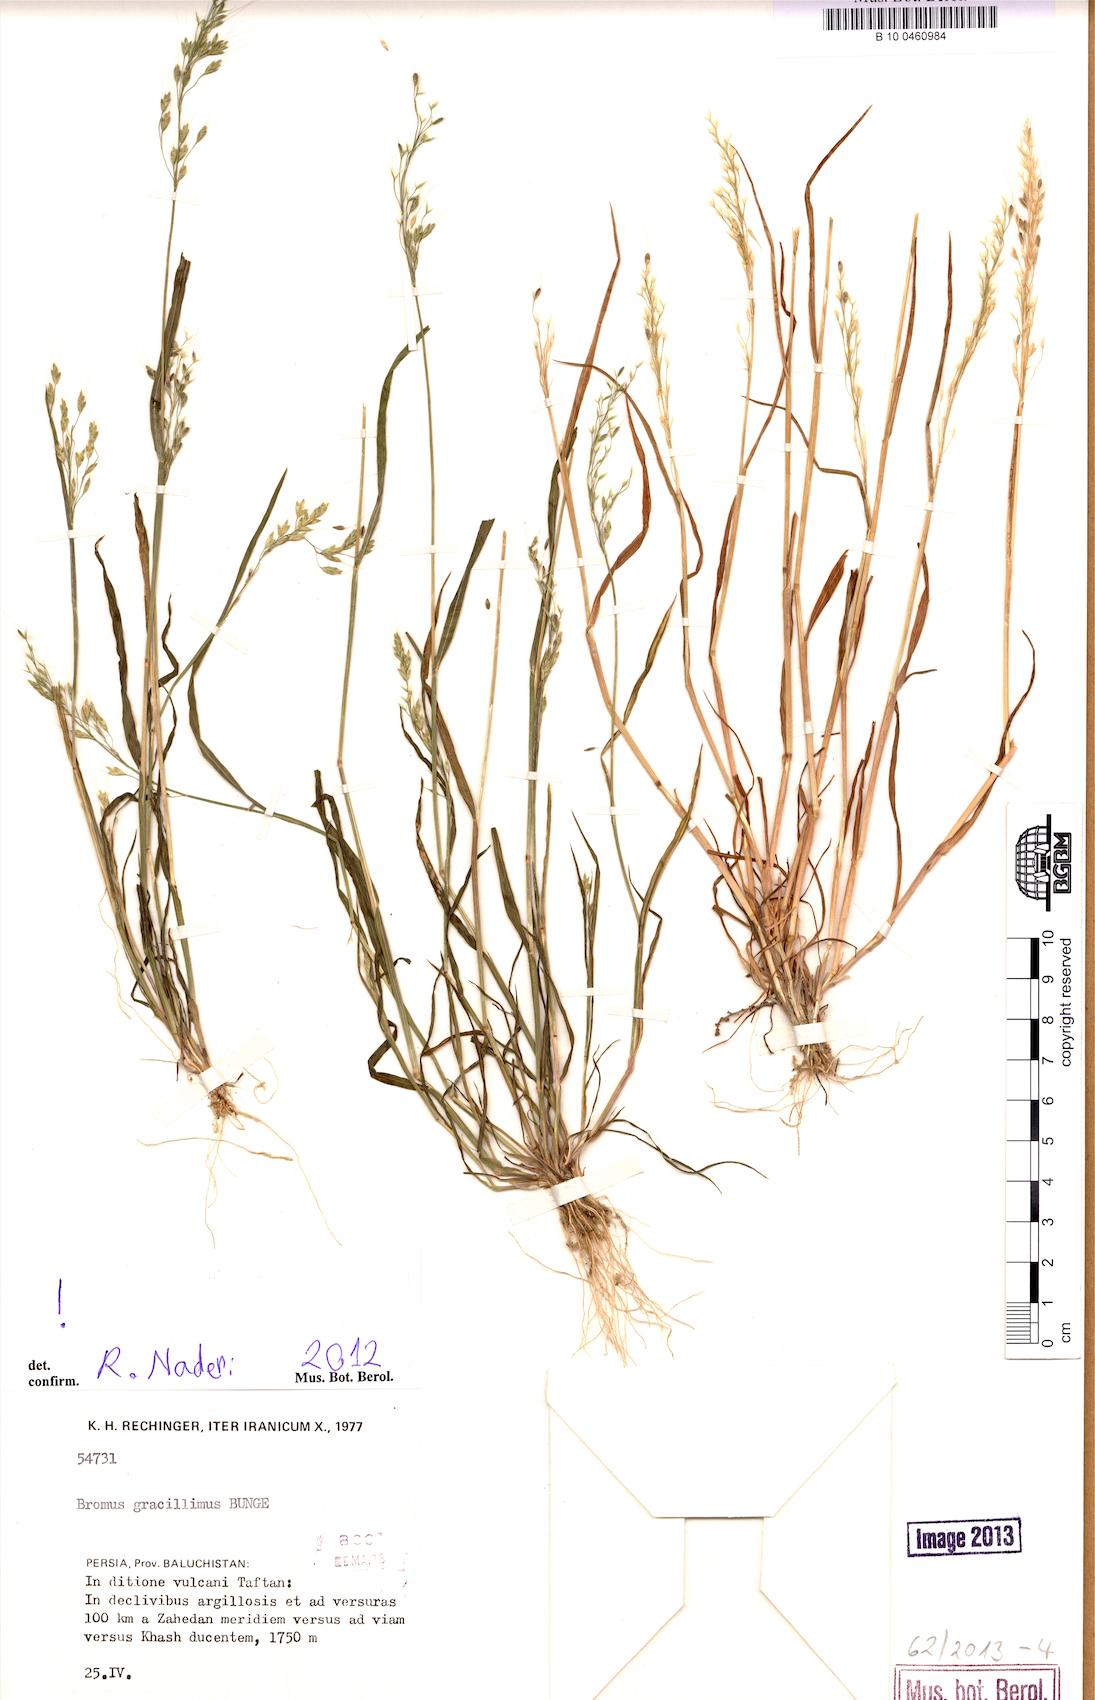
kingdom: Plantae
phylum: Tracheophyta
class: Liliopsida
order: Poales
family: Poaceae
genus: Bromus
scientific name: Bromus gracillimus
